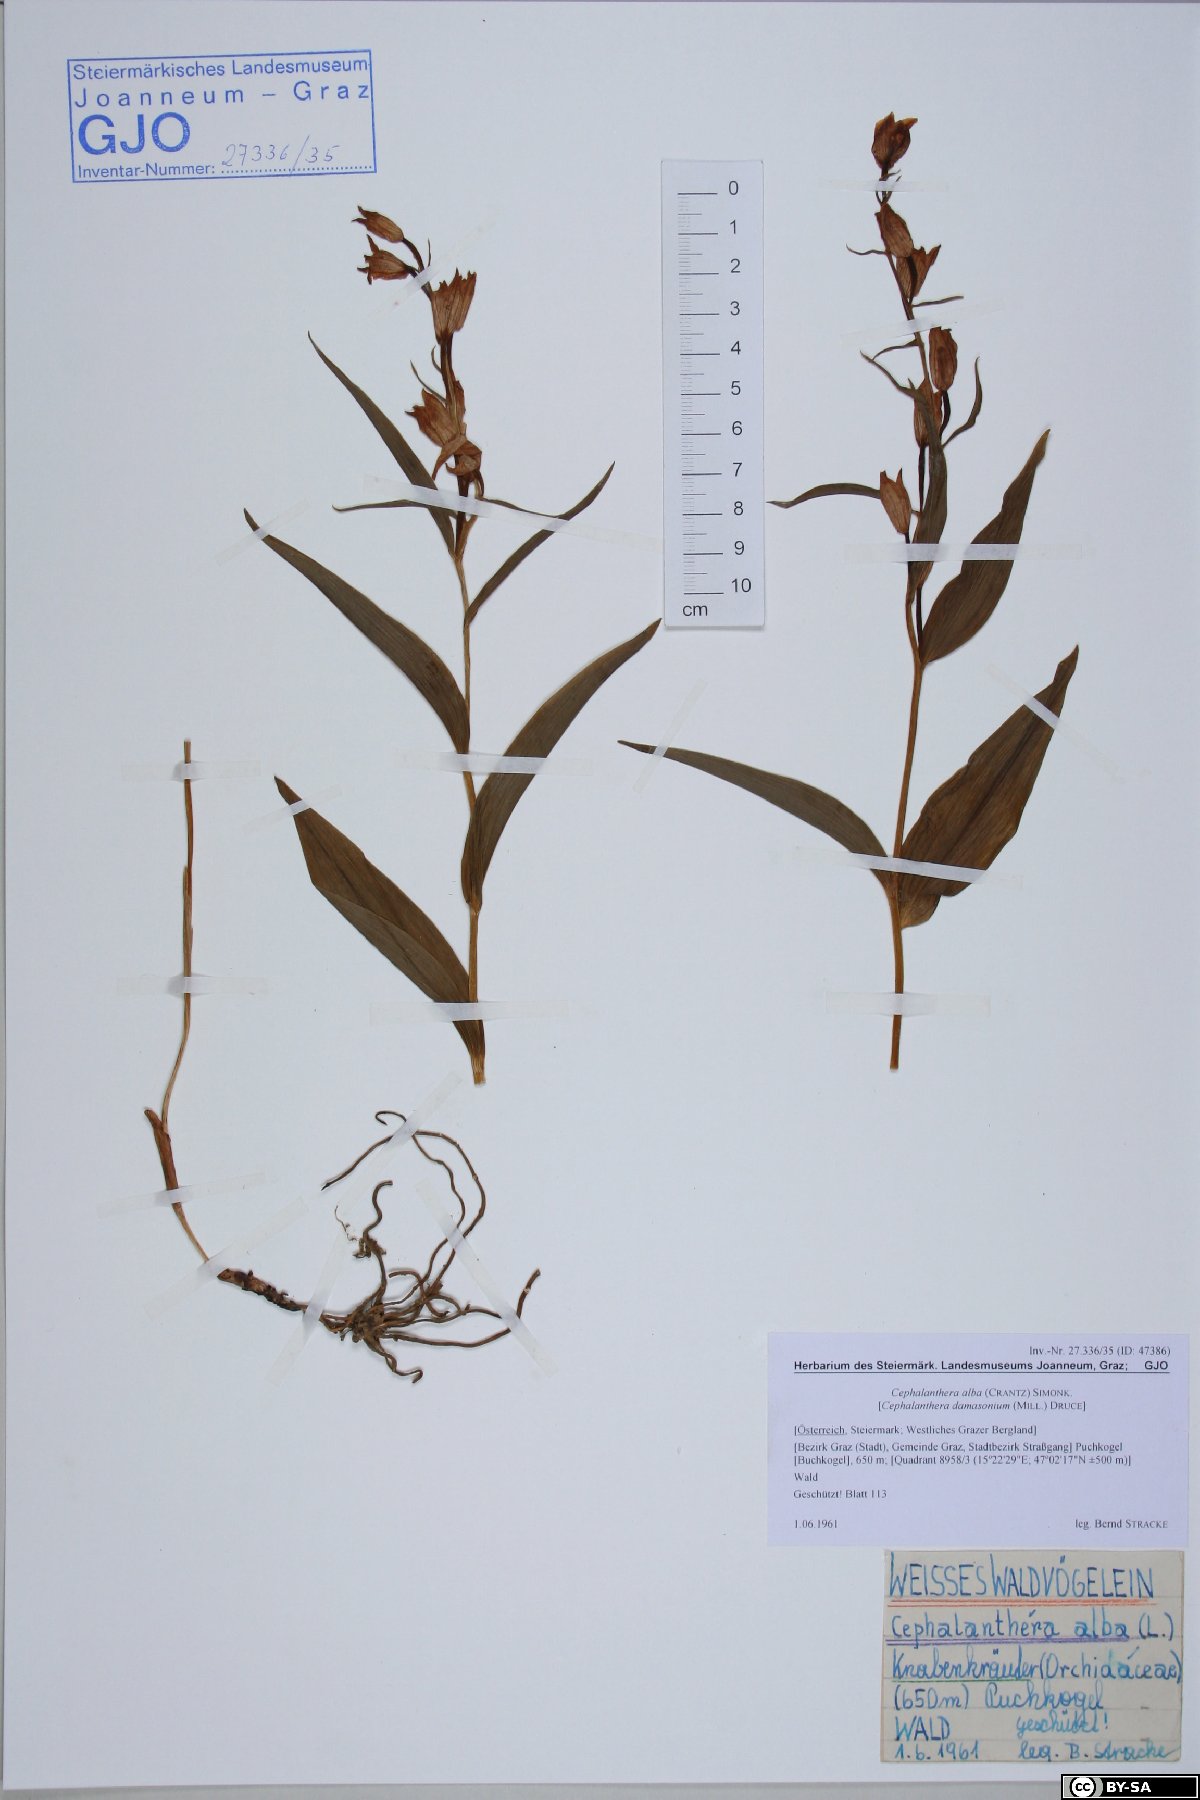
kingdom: Plantae
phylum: Tracheophyta
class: Liliopsida
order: Asparagales
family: Orchidaceae
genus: Cephalanthera
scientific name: Cephalanthera damasonium
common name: White helleborine
